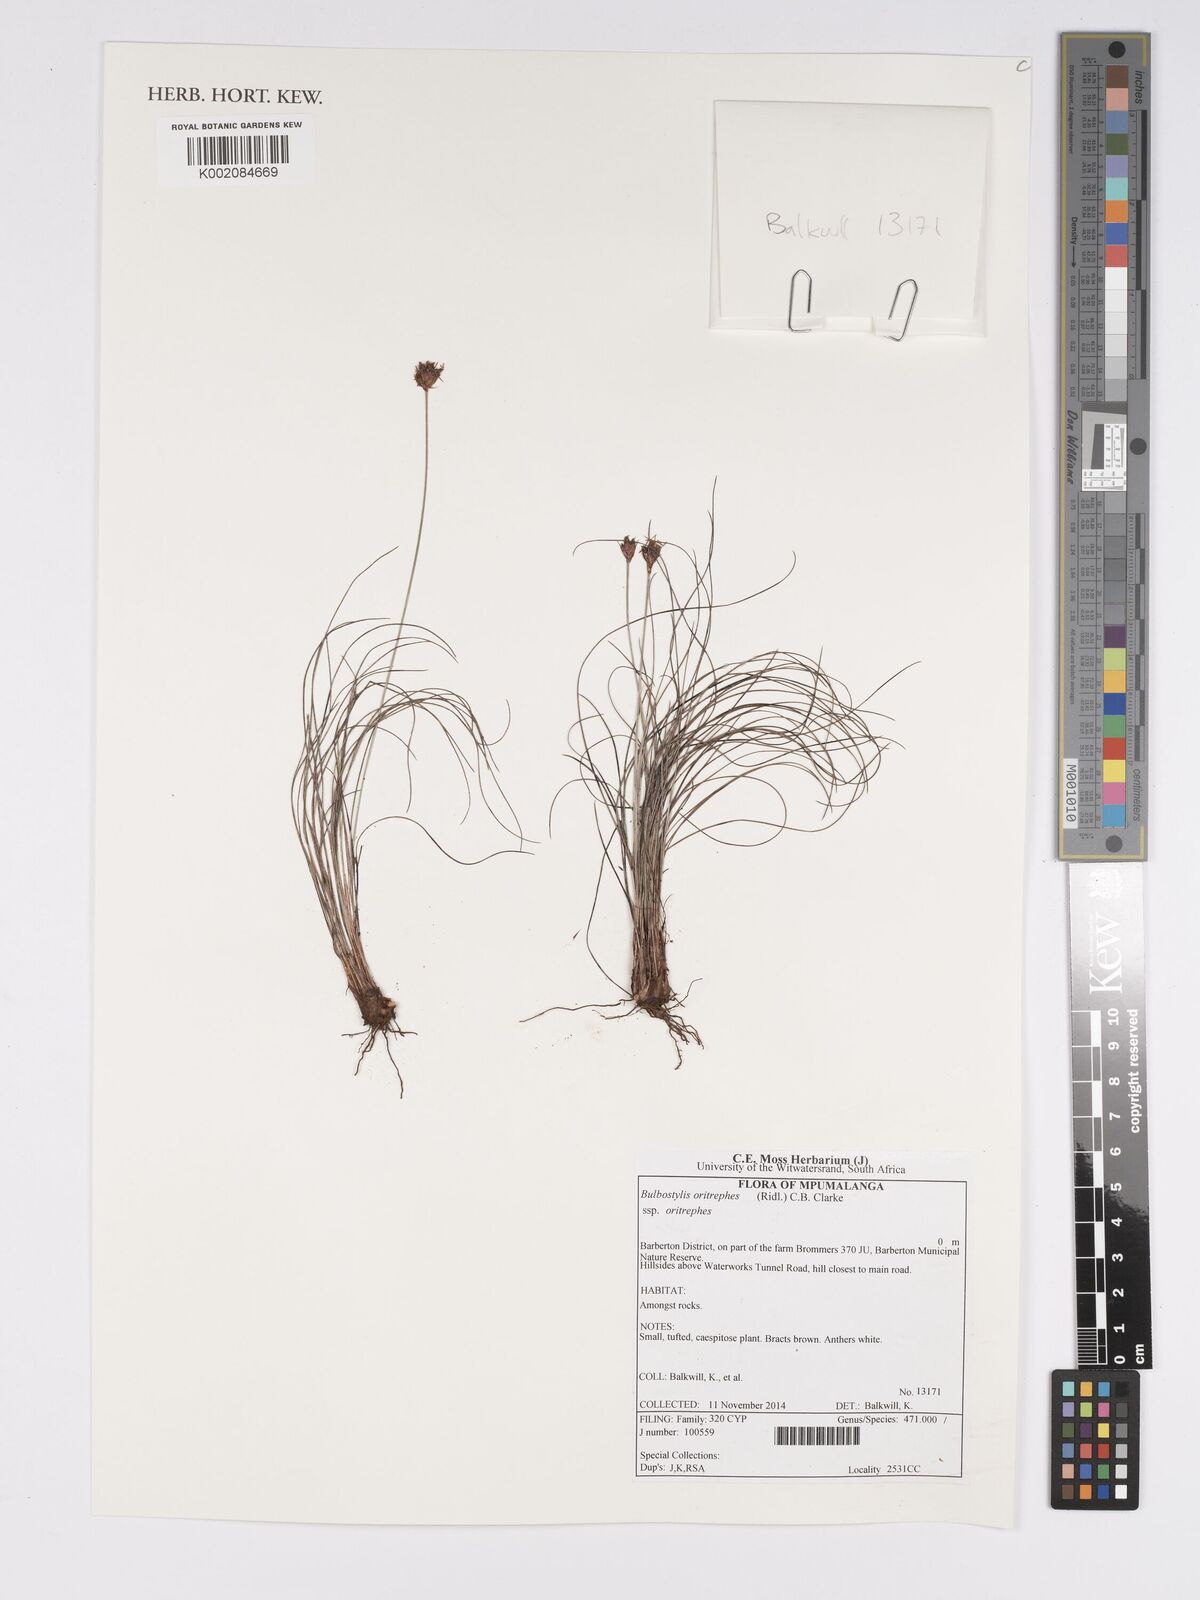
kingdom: Plantae
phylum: Tracheophyta
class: Liliopsida
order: Poales
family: Cyperaceae
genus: Bulbostylis
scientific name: Bulbostylis oritrephes
